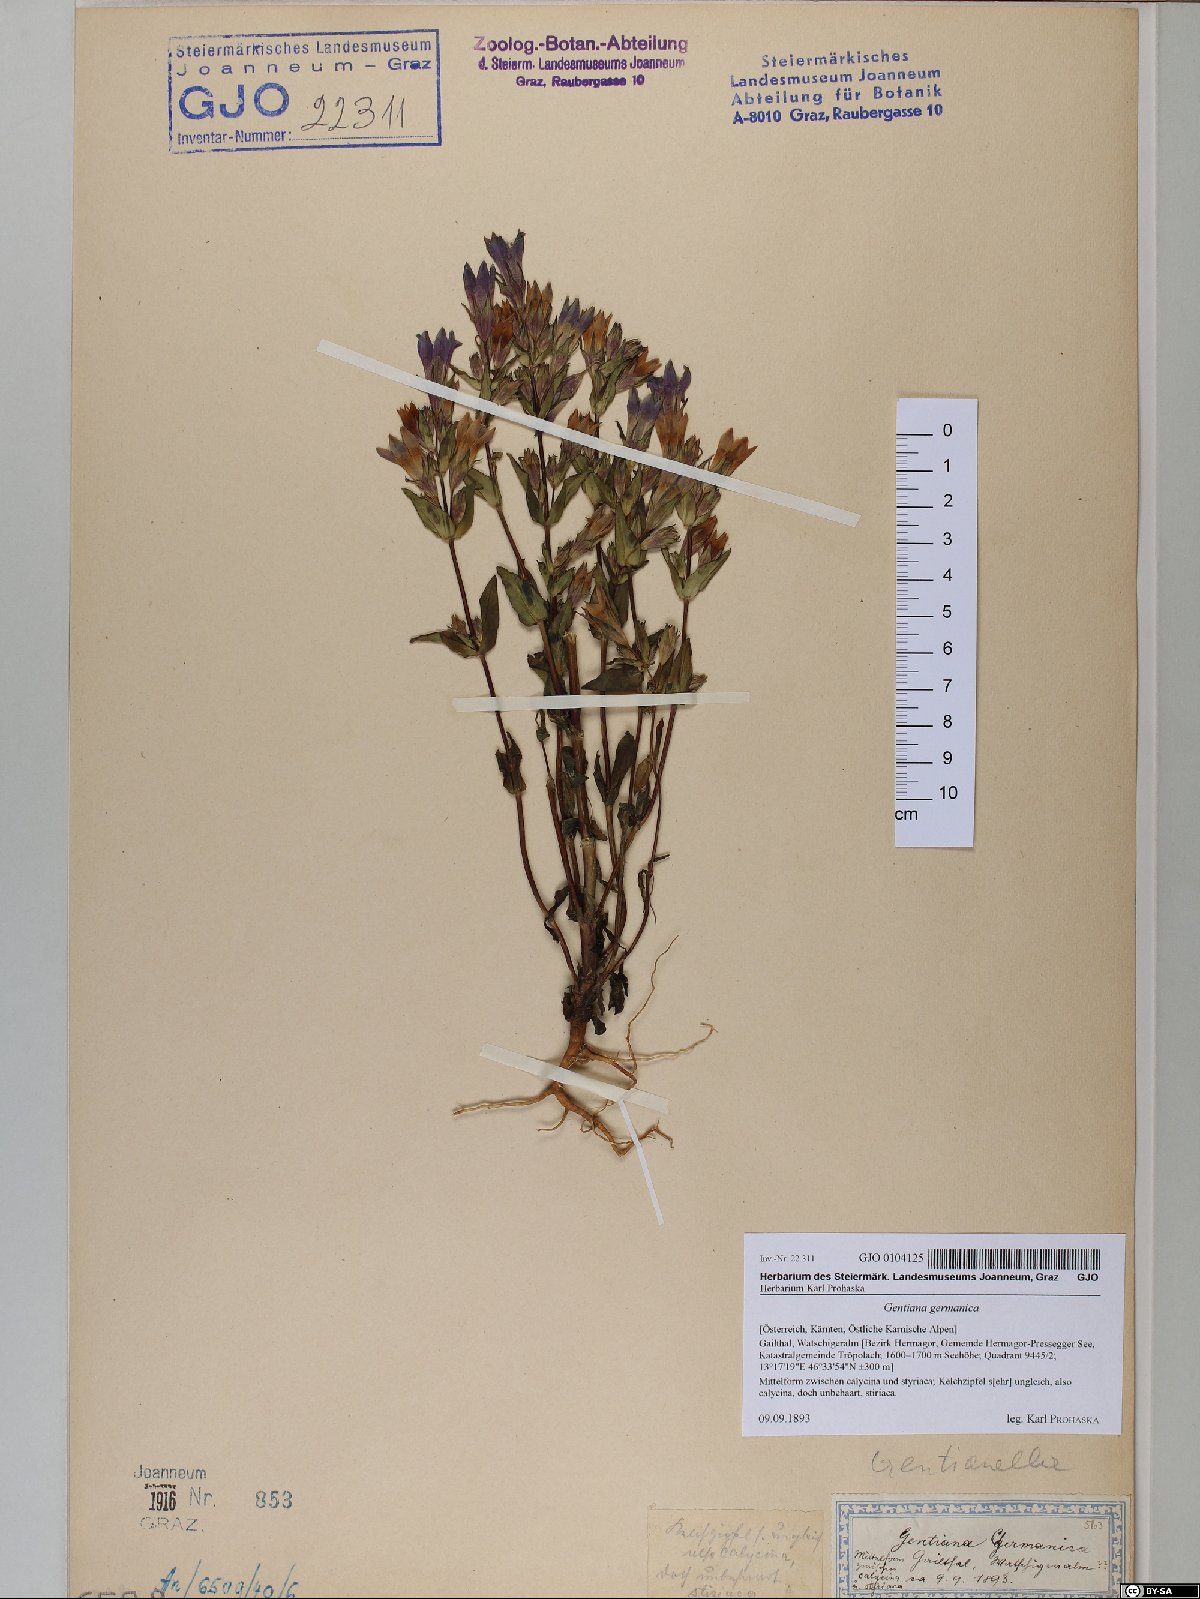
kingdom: Plantae
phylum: Tracheophyta
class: Magnoliopsida
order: Gentianales
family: Gentianaceae
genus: Gentianella
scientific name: Gentianella germanica
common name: Chiltern-gentian
